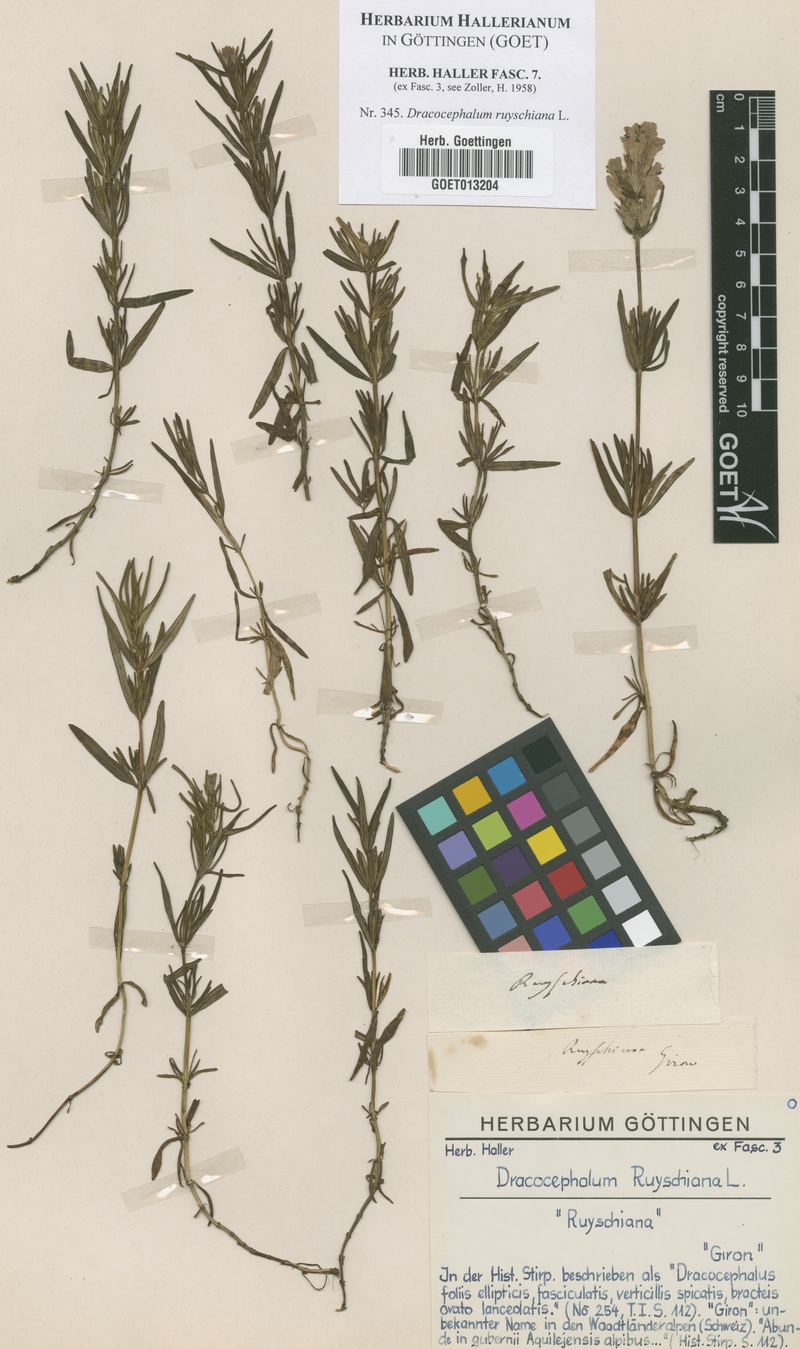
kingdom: Plantae
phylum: Tracheophyta
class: Magnoliopsida
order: Lamiales
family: Lamiaceae
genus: Dracocephalum
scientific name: Dracocephalum ruyschiana
